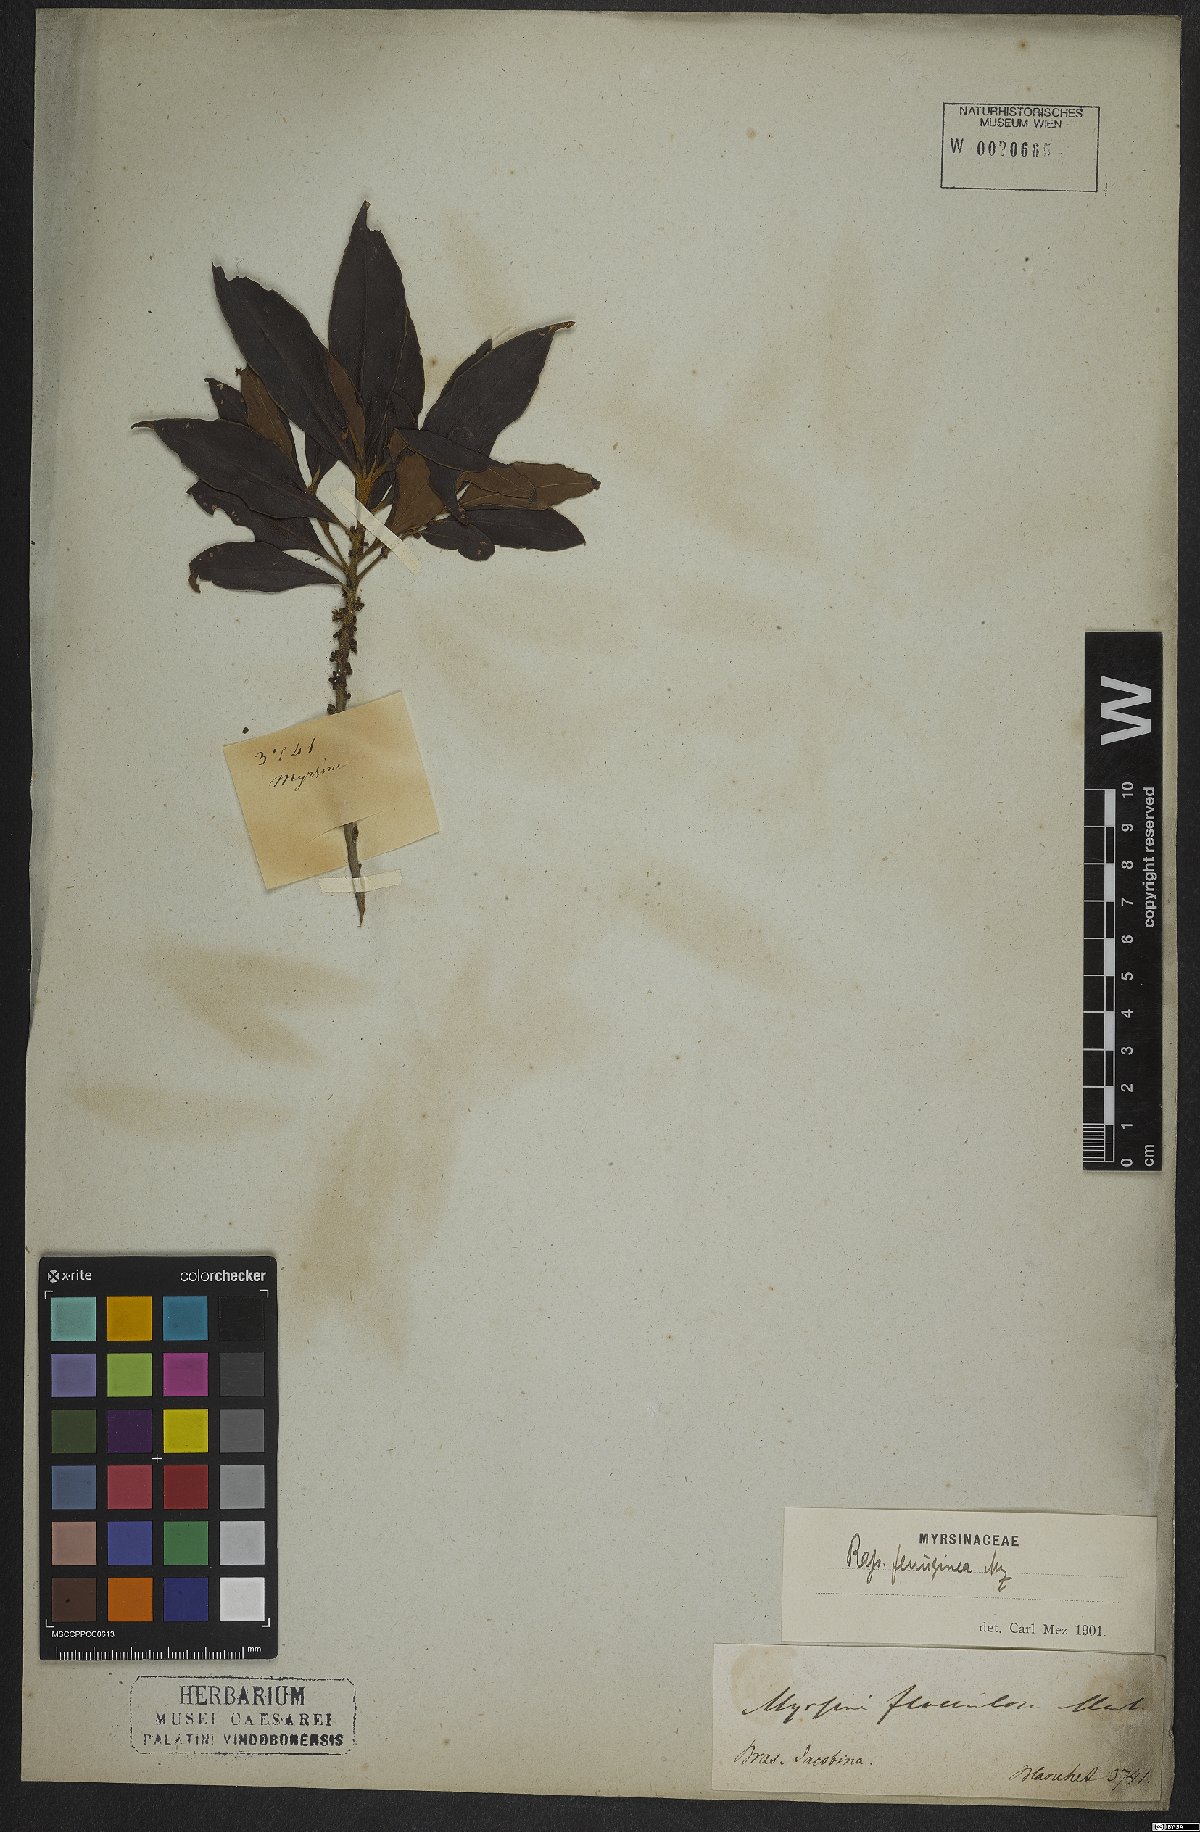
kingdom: Plantae
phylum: Tracheophyta
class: Magnoliopsida
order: Ericales
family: Primulaceae
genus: Myrsine
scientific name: Myrsine coriacea
